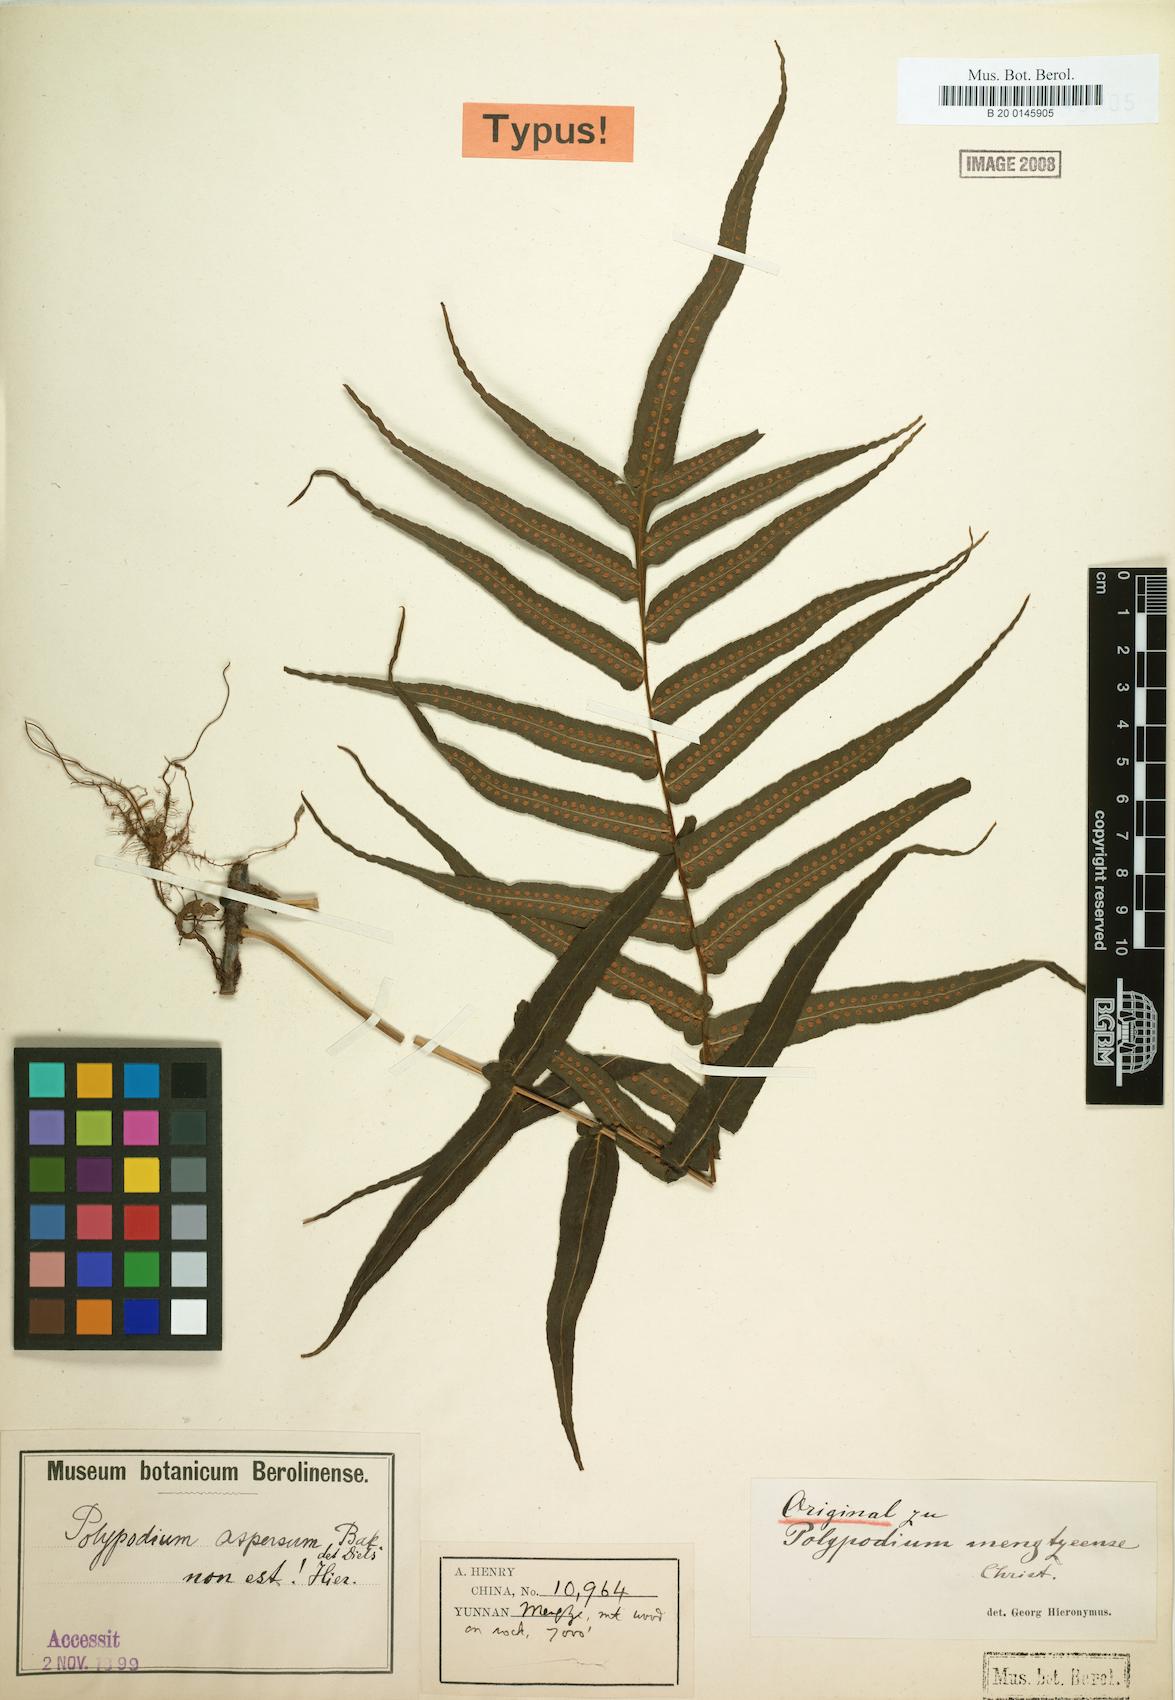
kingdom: Plantae
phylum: Tracheophyta
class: Polypodiopsida
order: Polypodiales
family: Polypodiaceae
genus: Goniophlebium
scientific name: Goniophlebium mengtzeense
